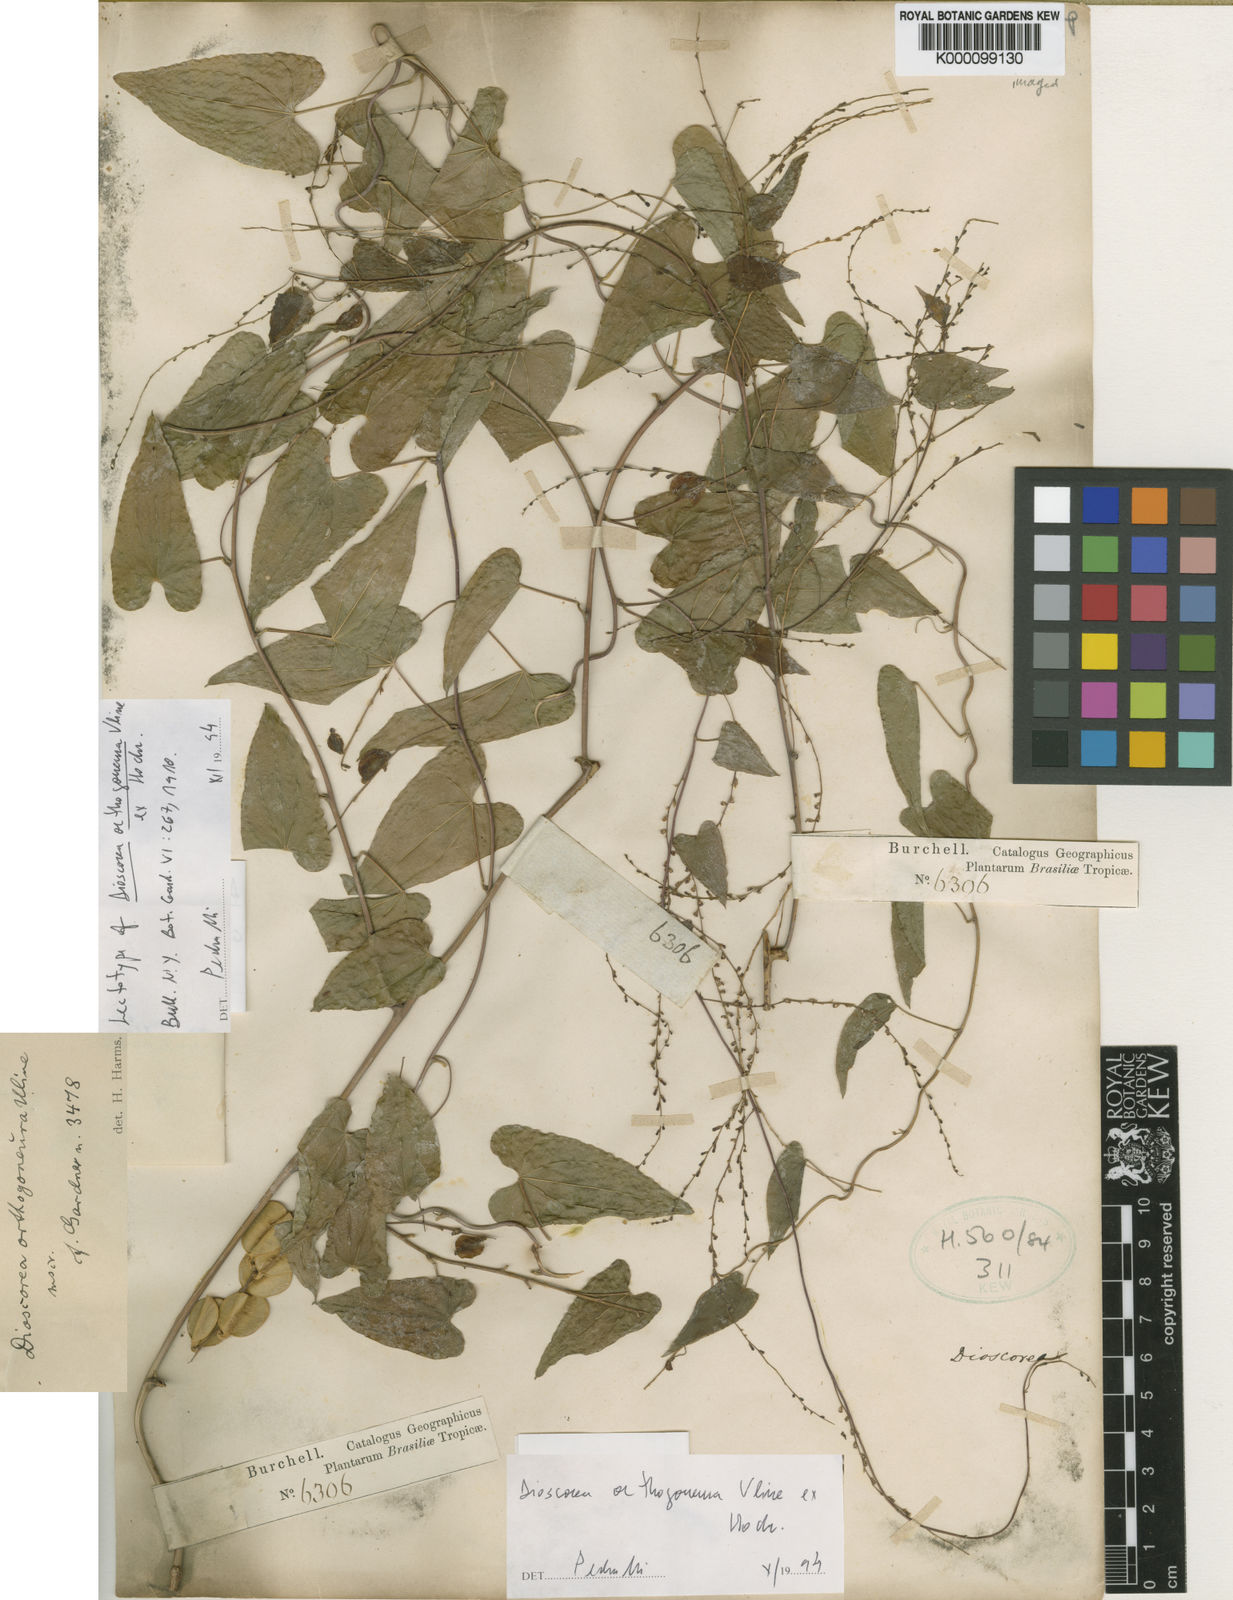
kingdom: Plantae
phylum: Tracheophyta
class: Liliopsida
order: Dioscoreales
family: Dioscoreaceae
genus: Dioscorea
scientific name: Dioscorea orthogoneura
